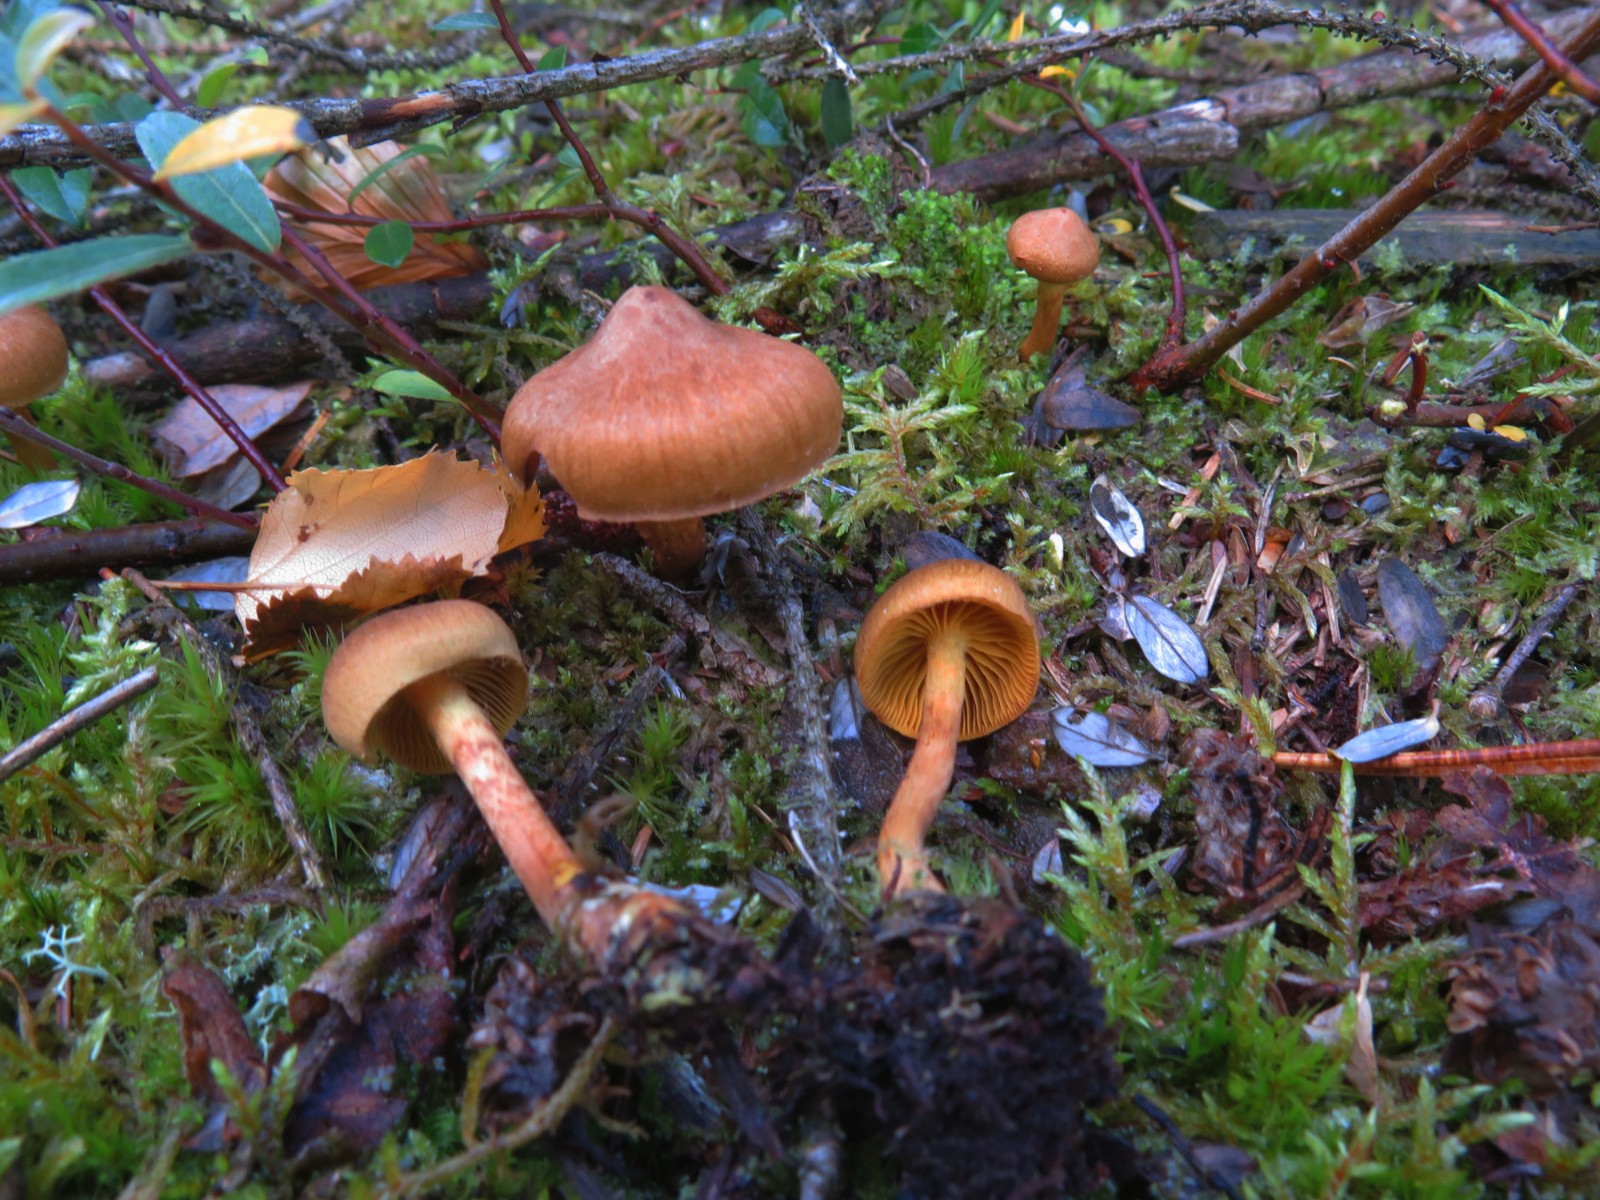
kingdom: Fungi
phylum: Basidiomycota
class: Agaricomycetes
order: Agaricales
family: Cortinariaceae
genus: Cortinarius
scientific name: Cortinarius
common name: gulbladet slørhat
